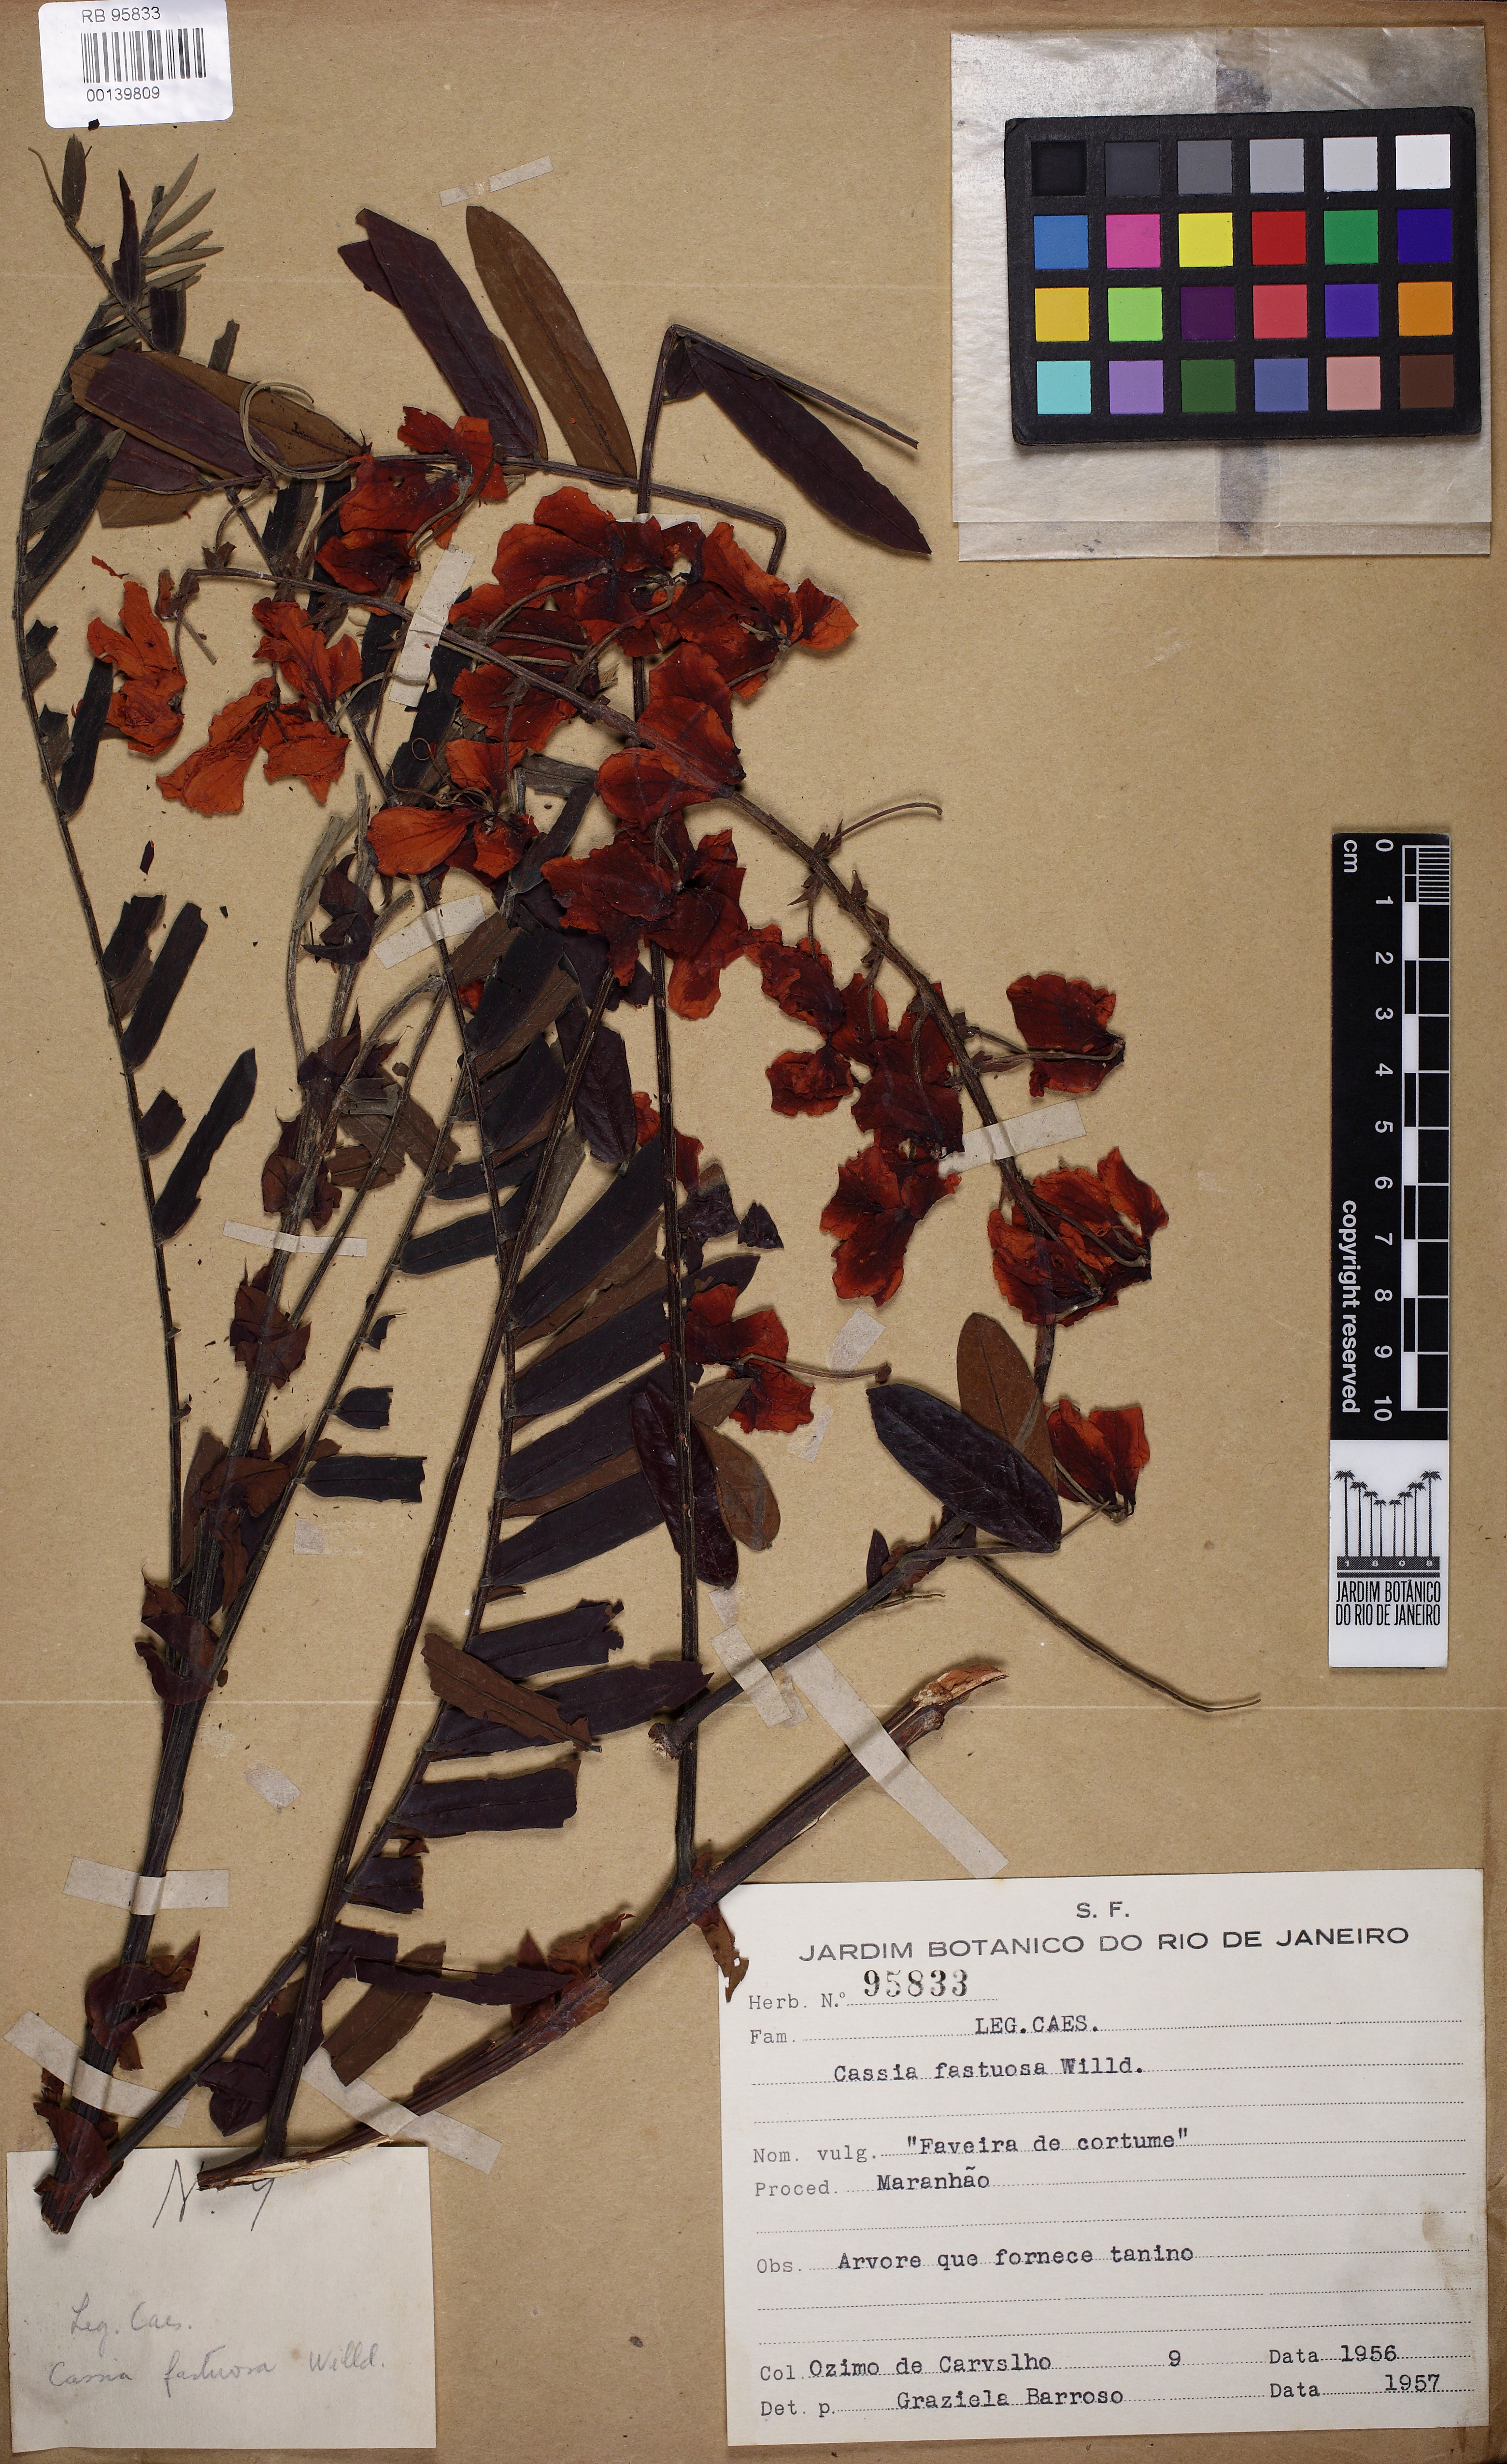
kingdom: Plantae
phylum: Tracheophyta
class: Magnoliopsida
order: Fabales
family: Fabaceae
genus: Cassia
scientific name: Cassia fastuosa
